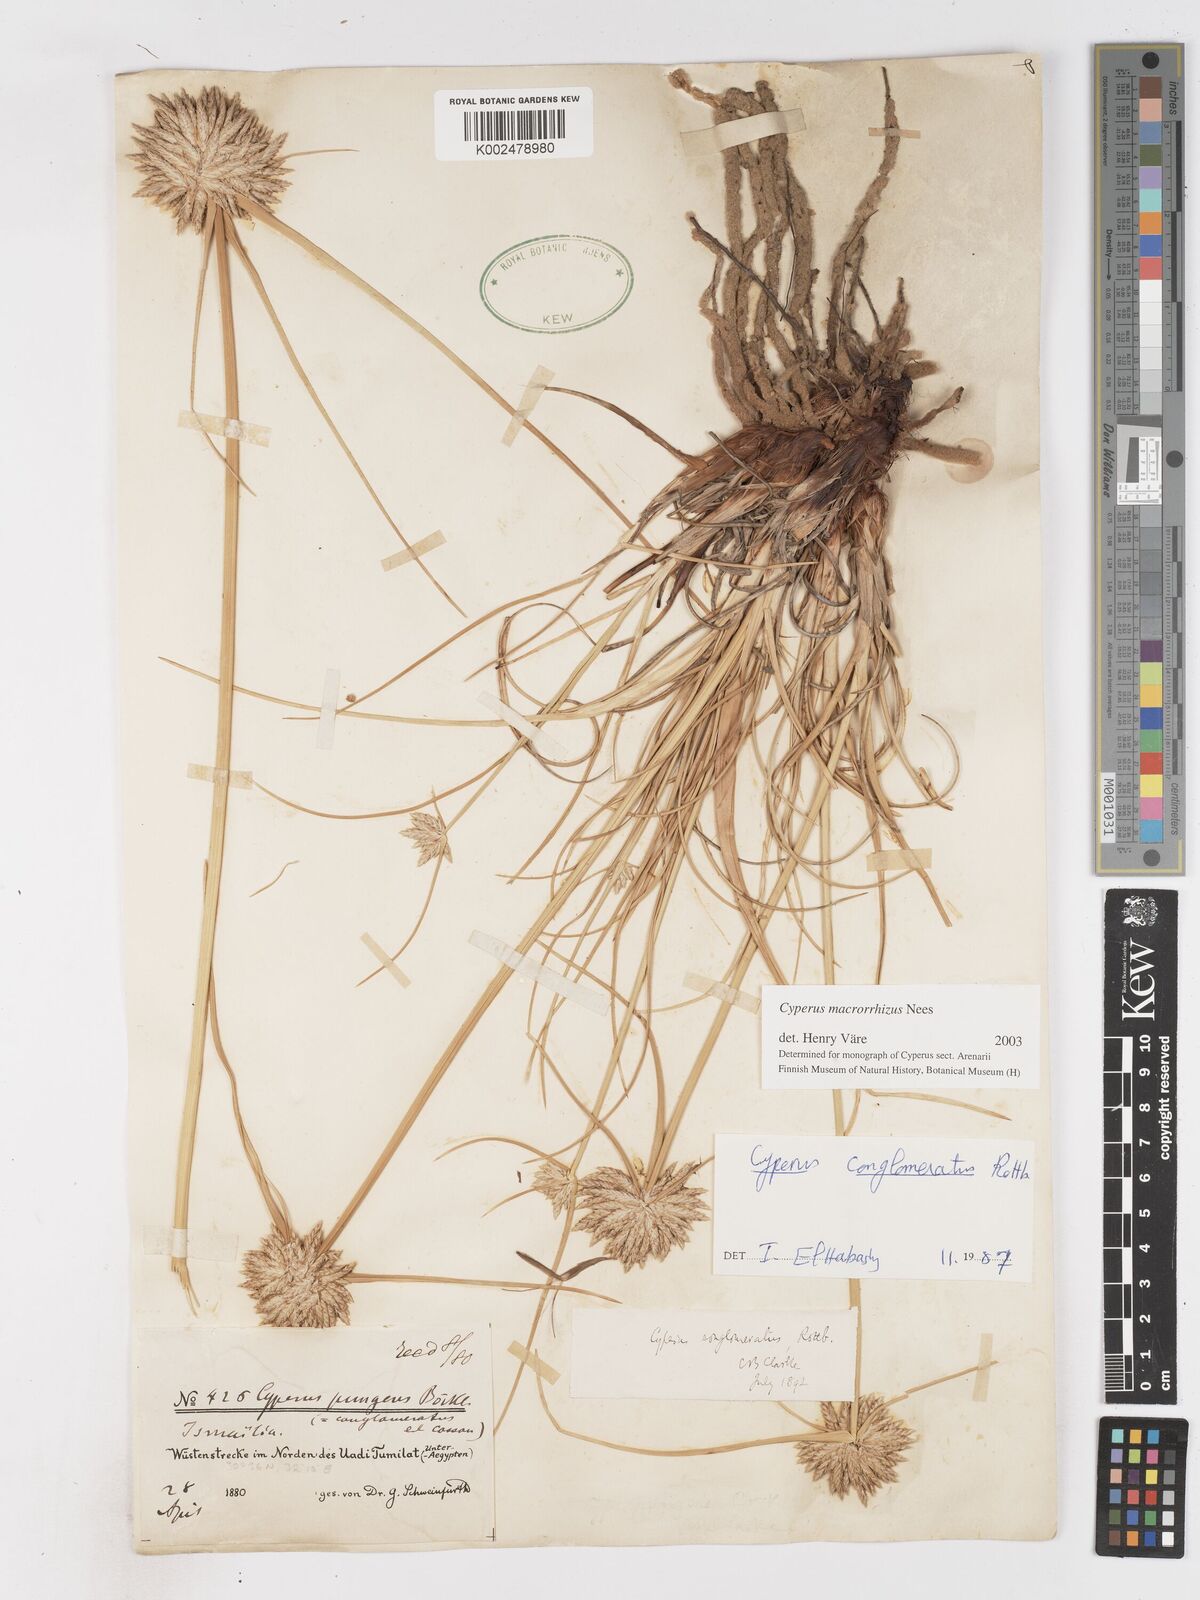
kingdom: Plantae
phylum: Tracheophyta
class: Liliopsida
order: Poales
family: Cyperaceae
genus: Cyperus
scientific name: Cyperus macrorrhizus
